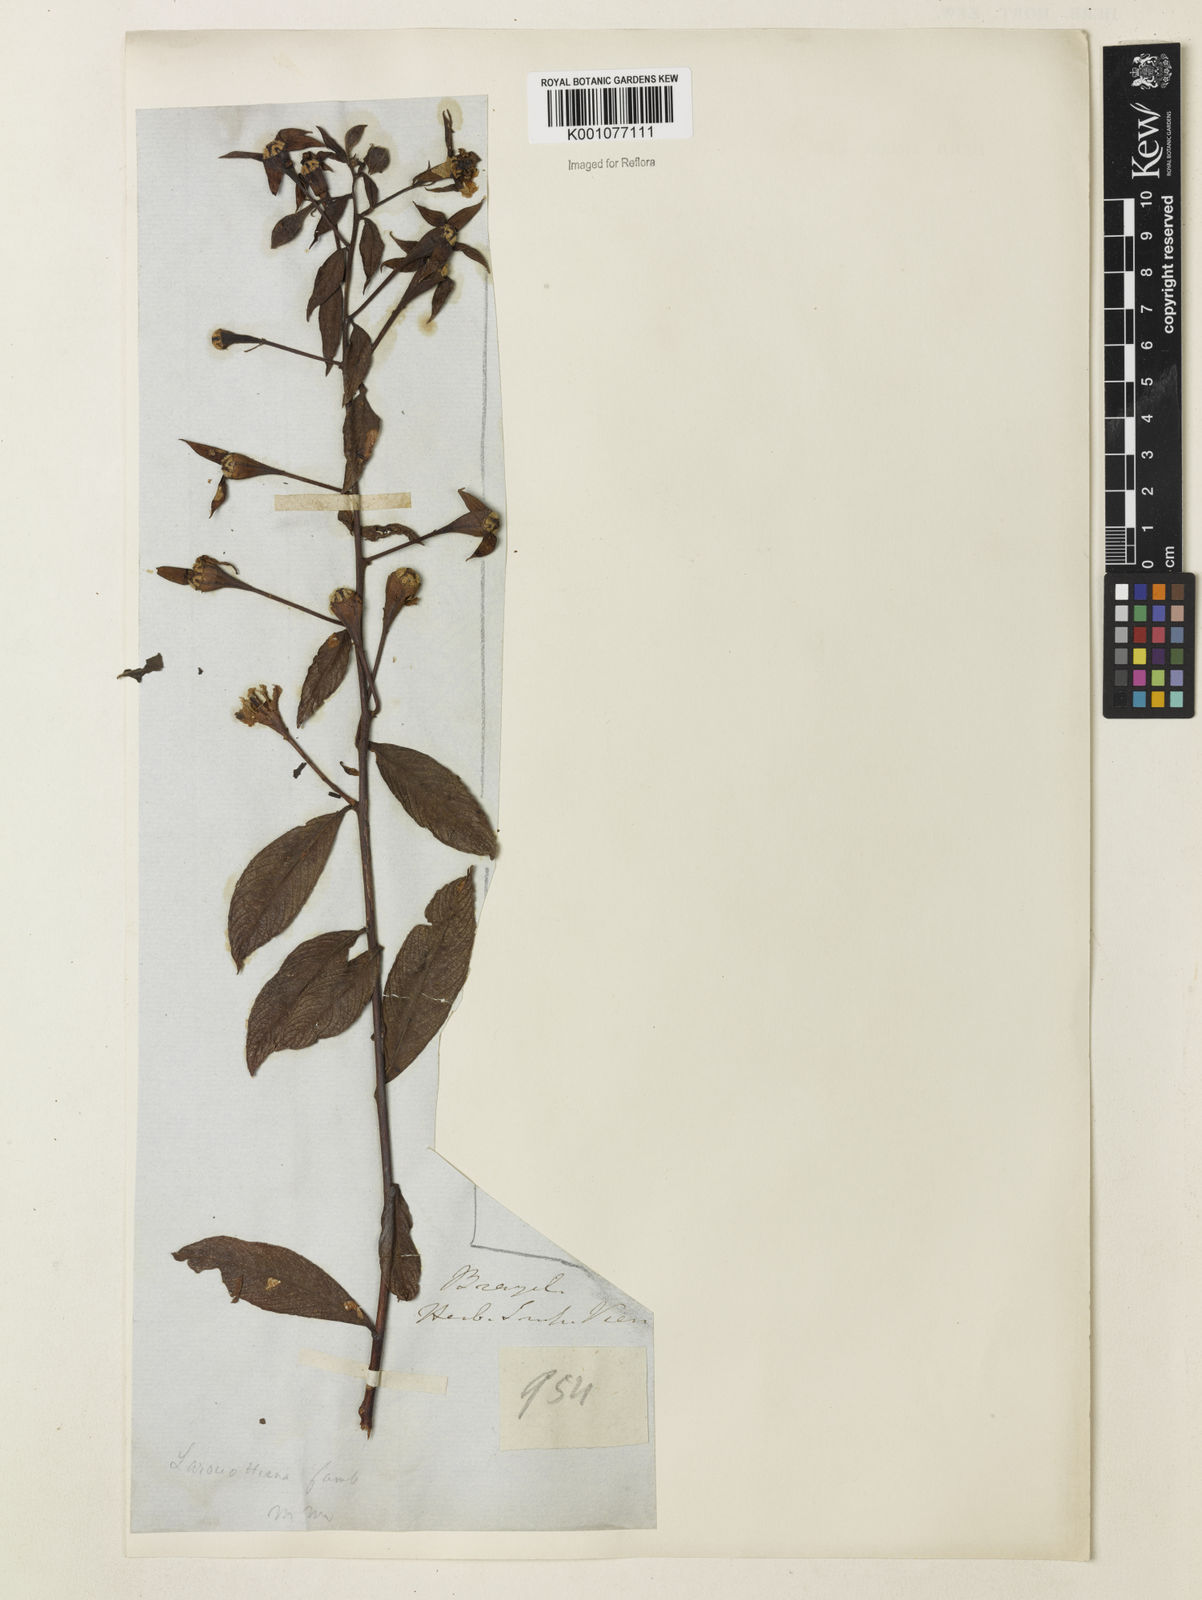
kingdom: Plantae
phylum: Tracheophyta
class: Magnoliopsida
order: Myrtales
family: Onagraceae
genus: Ludwigia
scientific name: Ludwigia laruotteana
